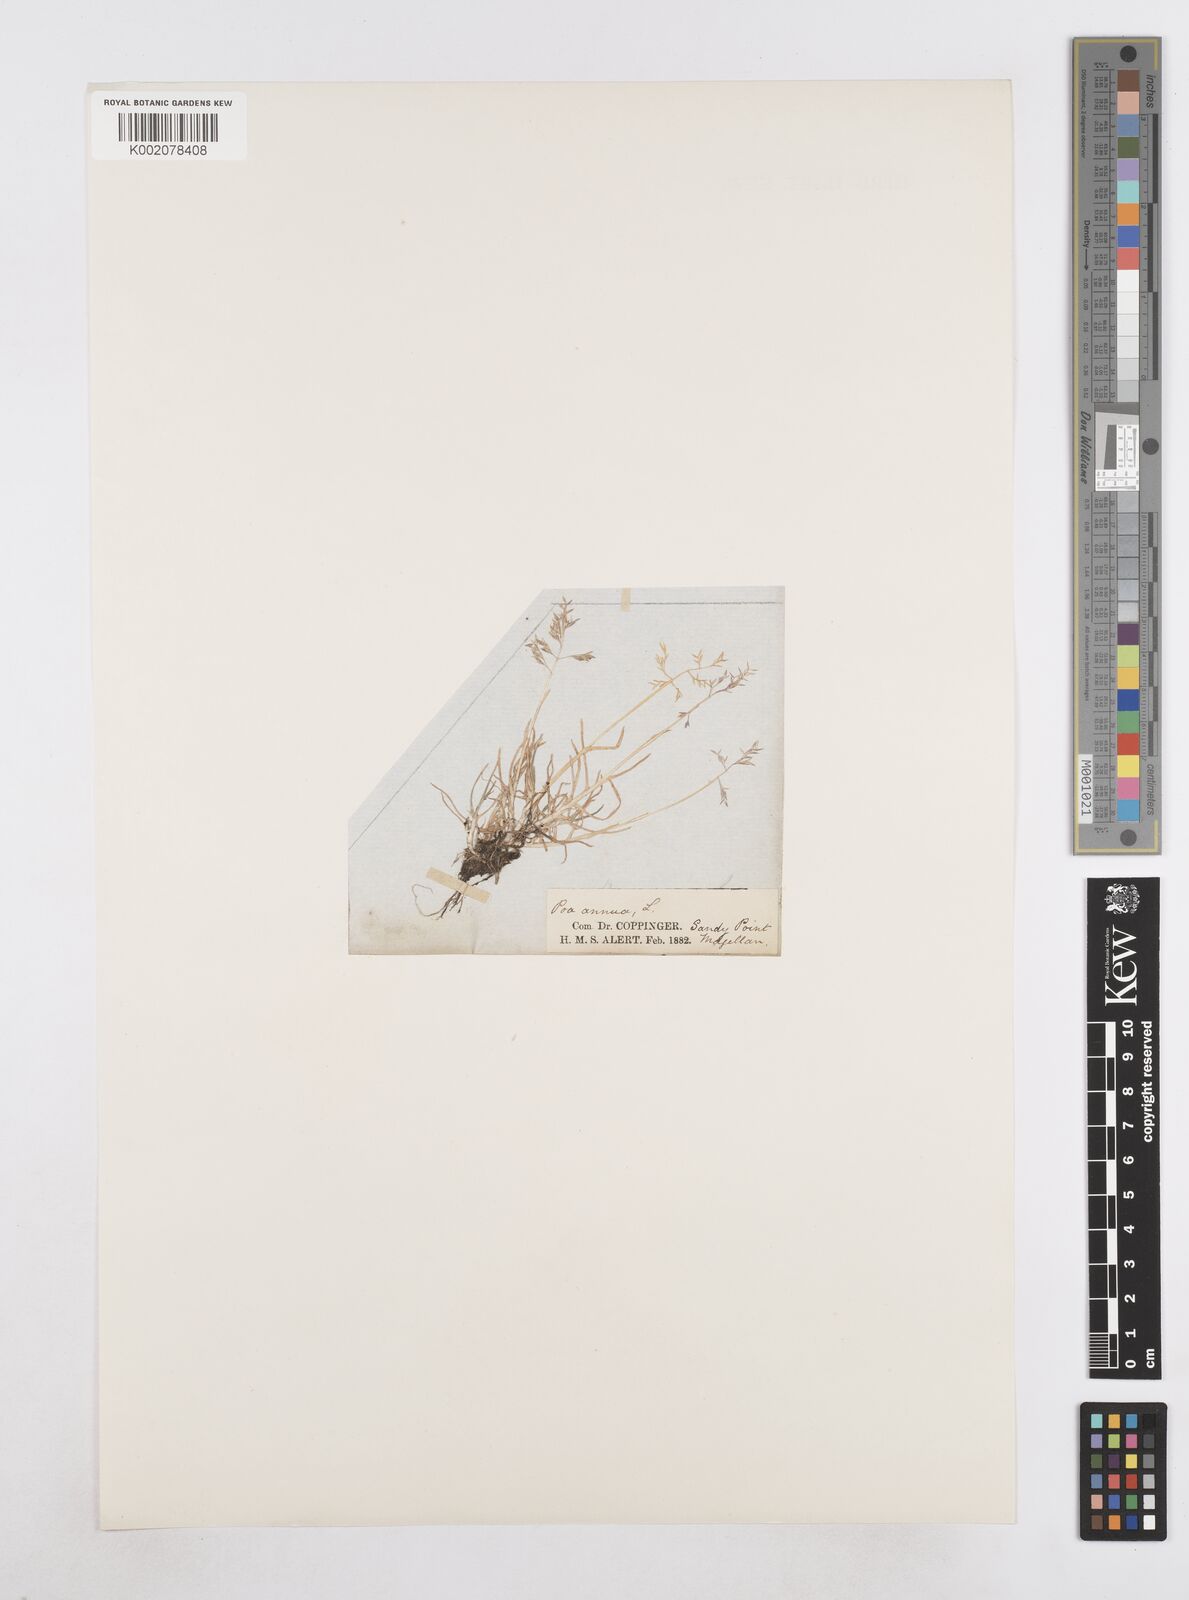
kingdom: Plantae
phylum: Tracheophyta
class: Liliopsida
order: Poales
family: Poaceae
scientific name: Poaceae
